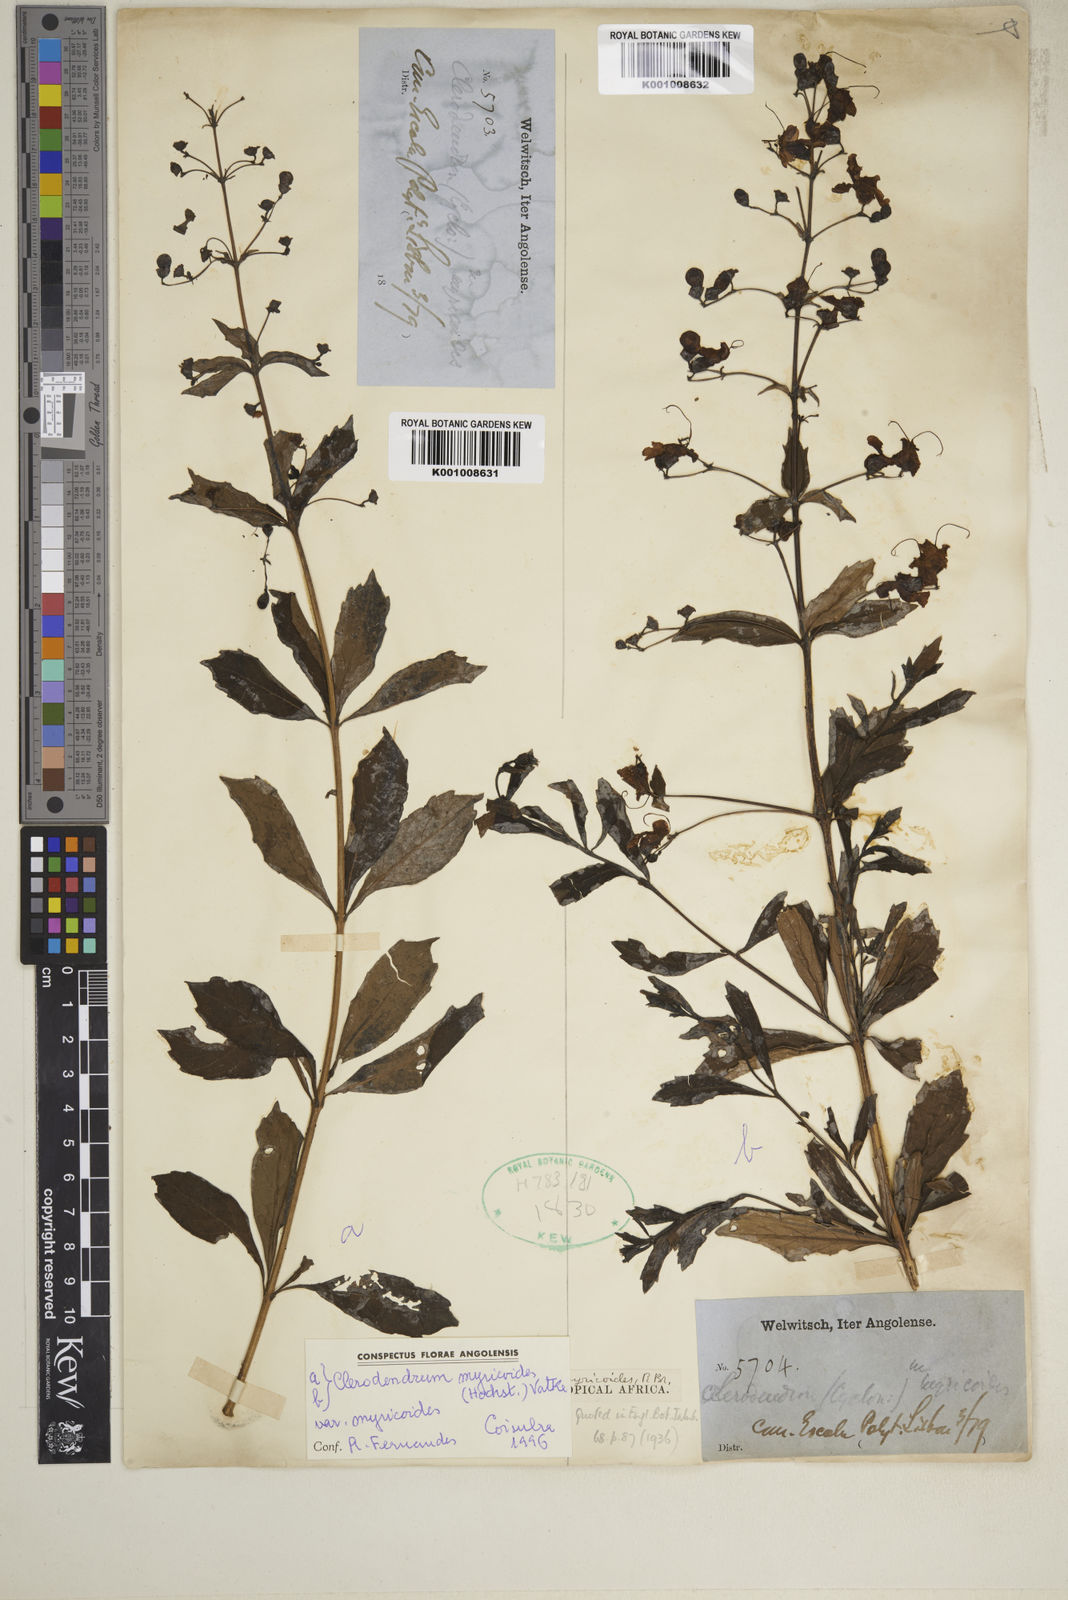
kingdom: Plantae
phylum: Tracheophyta
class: Magnoliopsida
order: Lamiales
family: Lamiaceae
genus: Rotheca
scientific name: Rotheca myricoides
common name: Cats-whiskers
